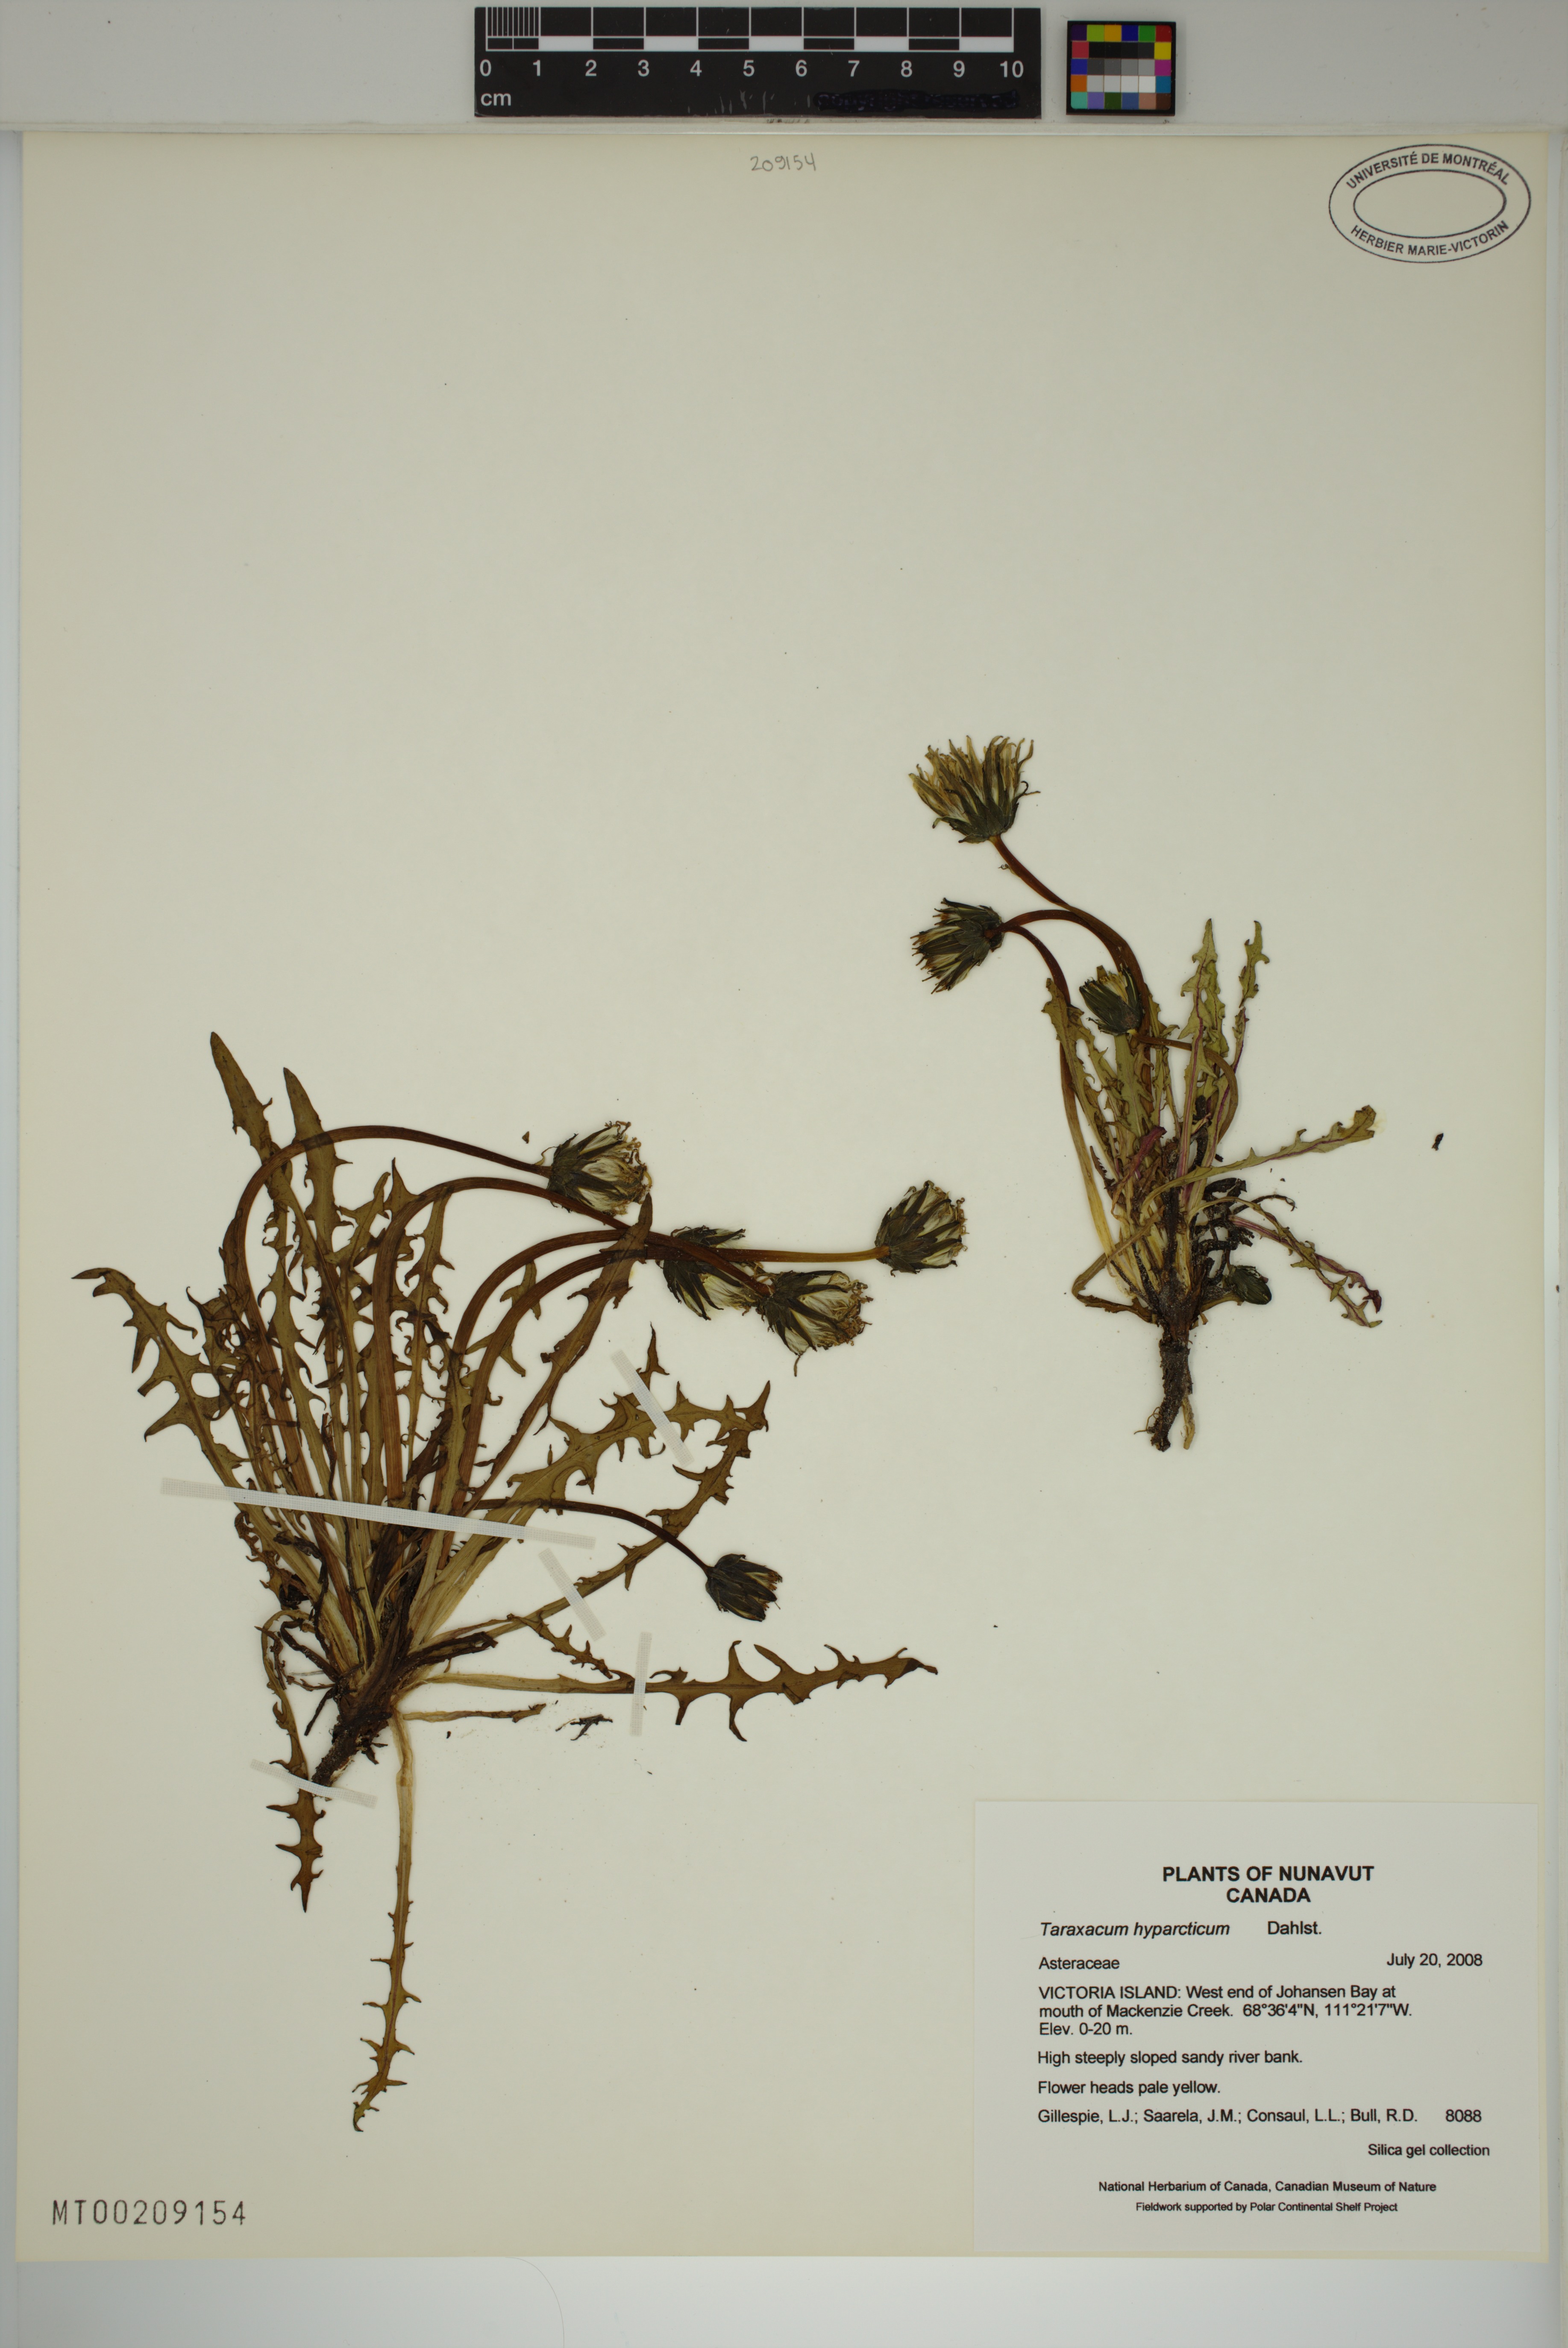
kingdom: Plantae
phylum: Tracheophyta
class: Magnoliopsida
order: Asterales
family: Asteraceae
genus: Taraxacum
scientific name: Taraxacum hyparcticum
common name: High arctic dandelion
